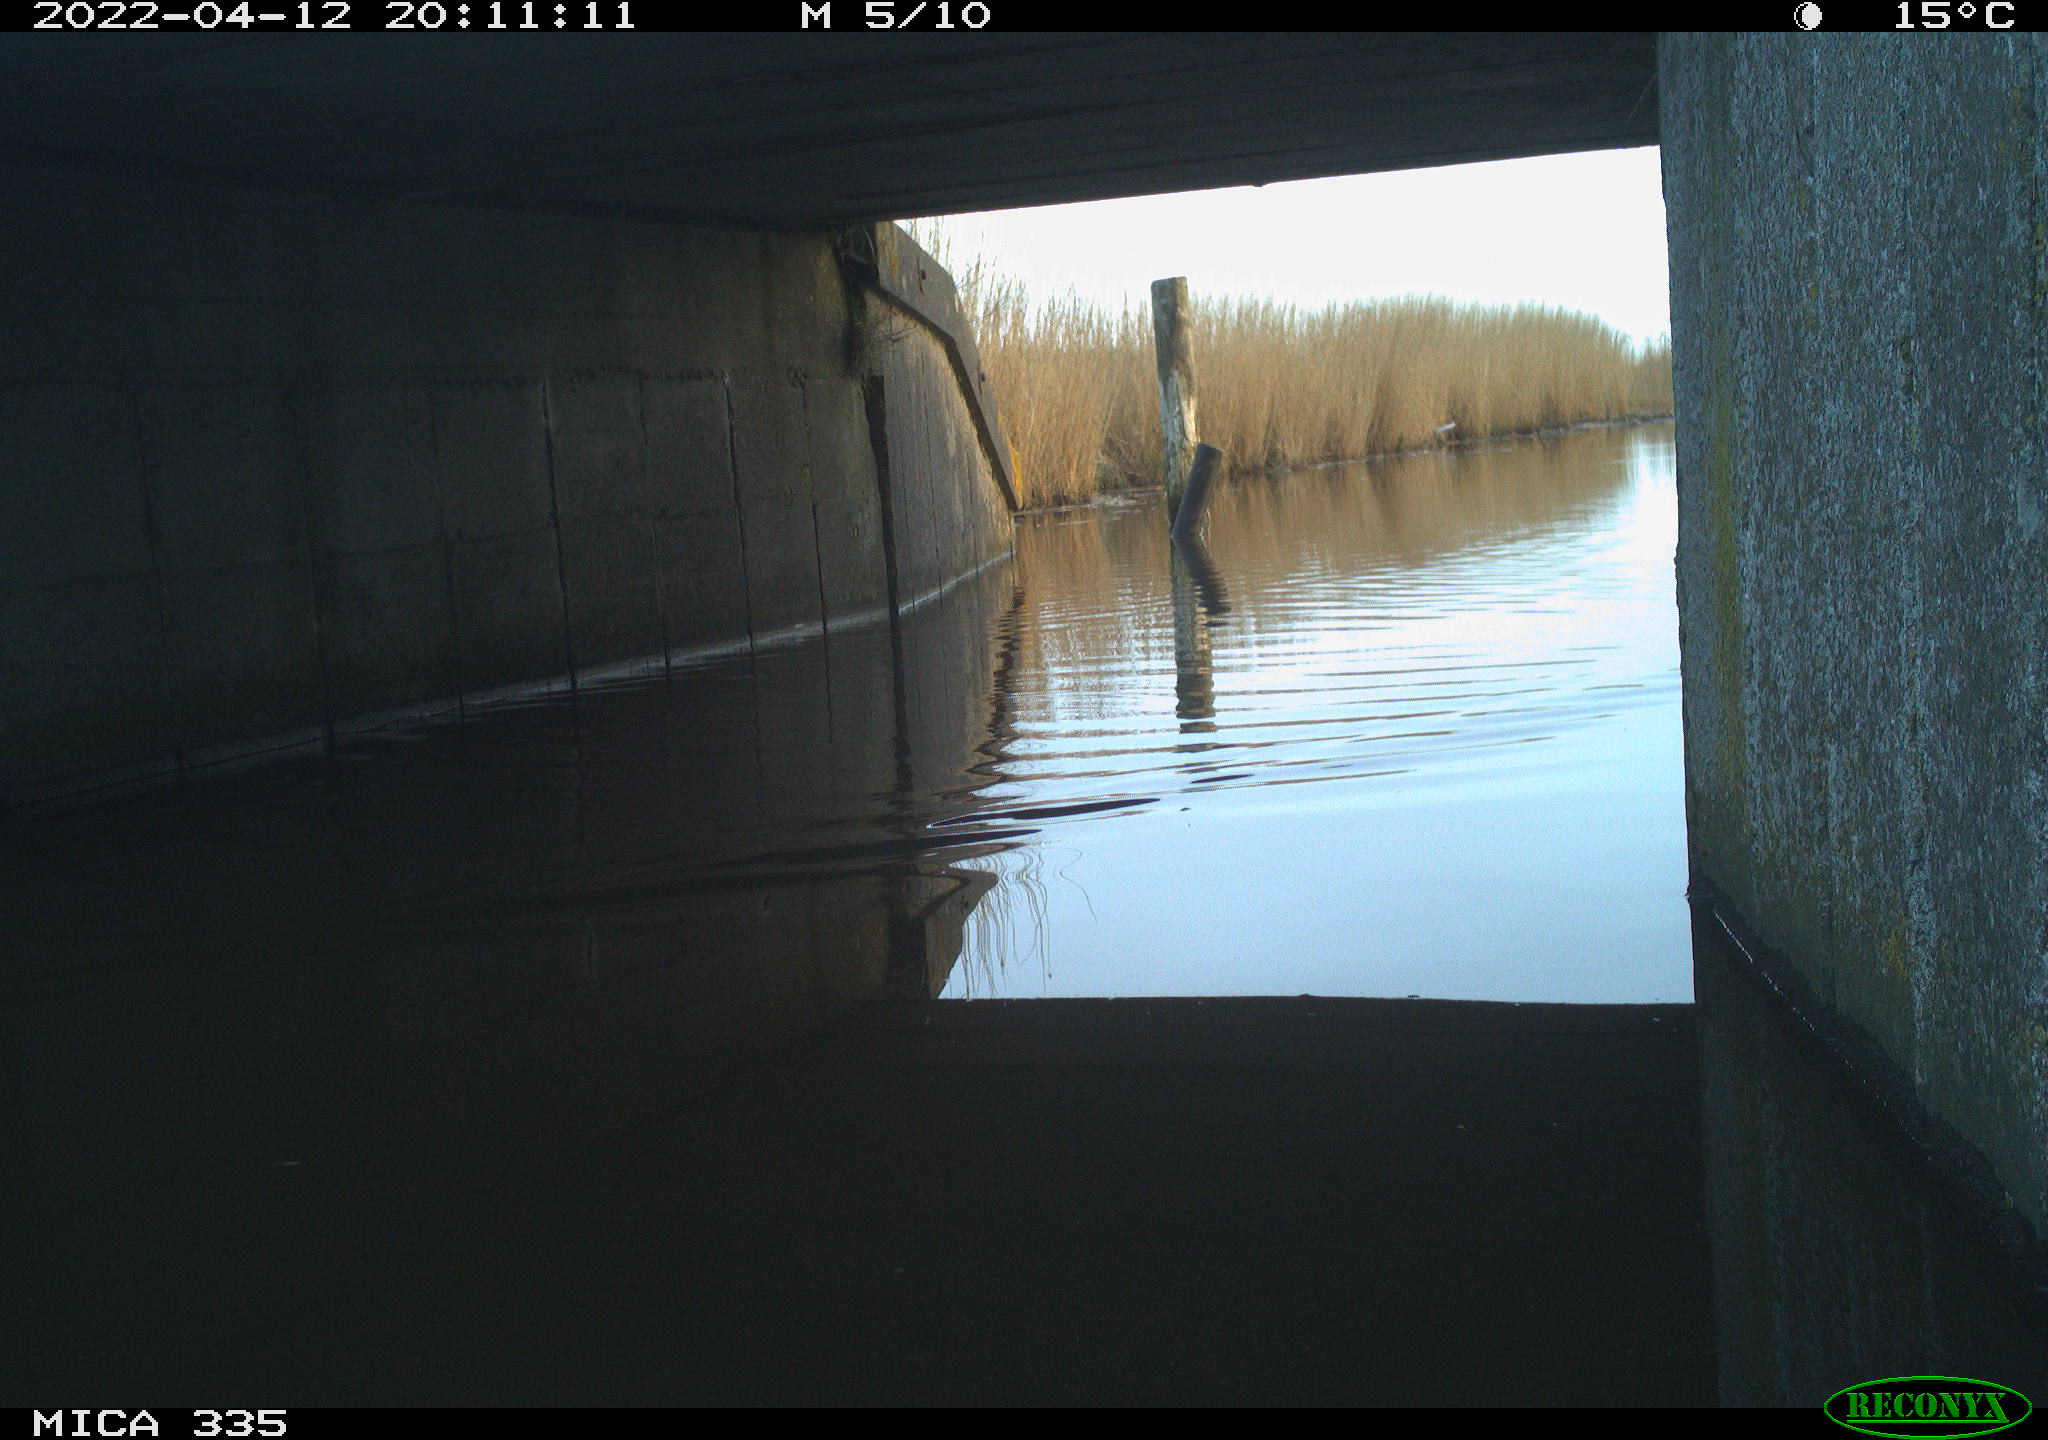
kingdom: Animalia
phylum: Chordata
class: Aves
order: Anseriformes
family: Anatidae
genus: Anas
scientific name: Anas platyrhynchos
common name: Mallard
